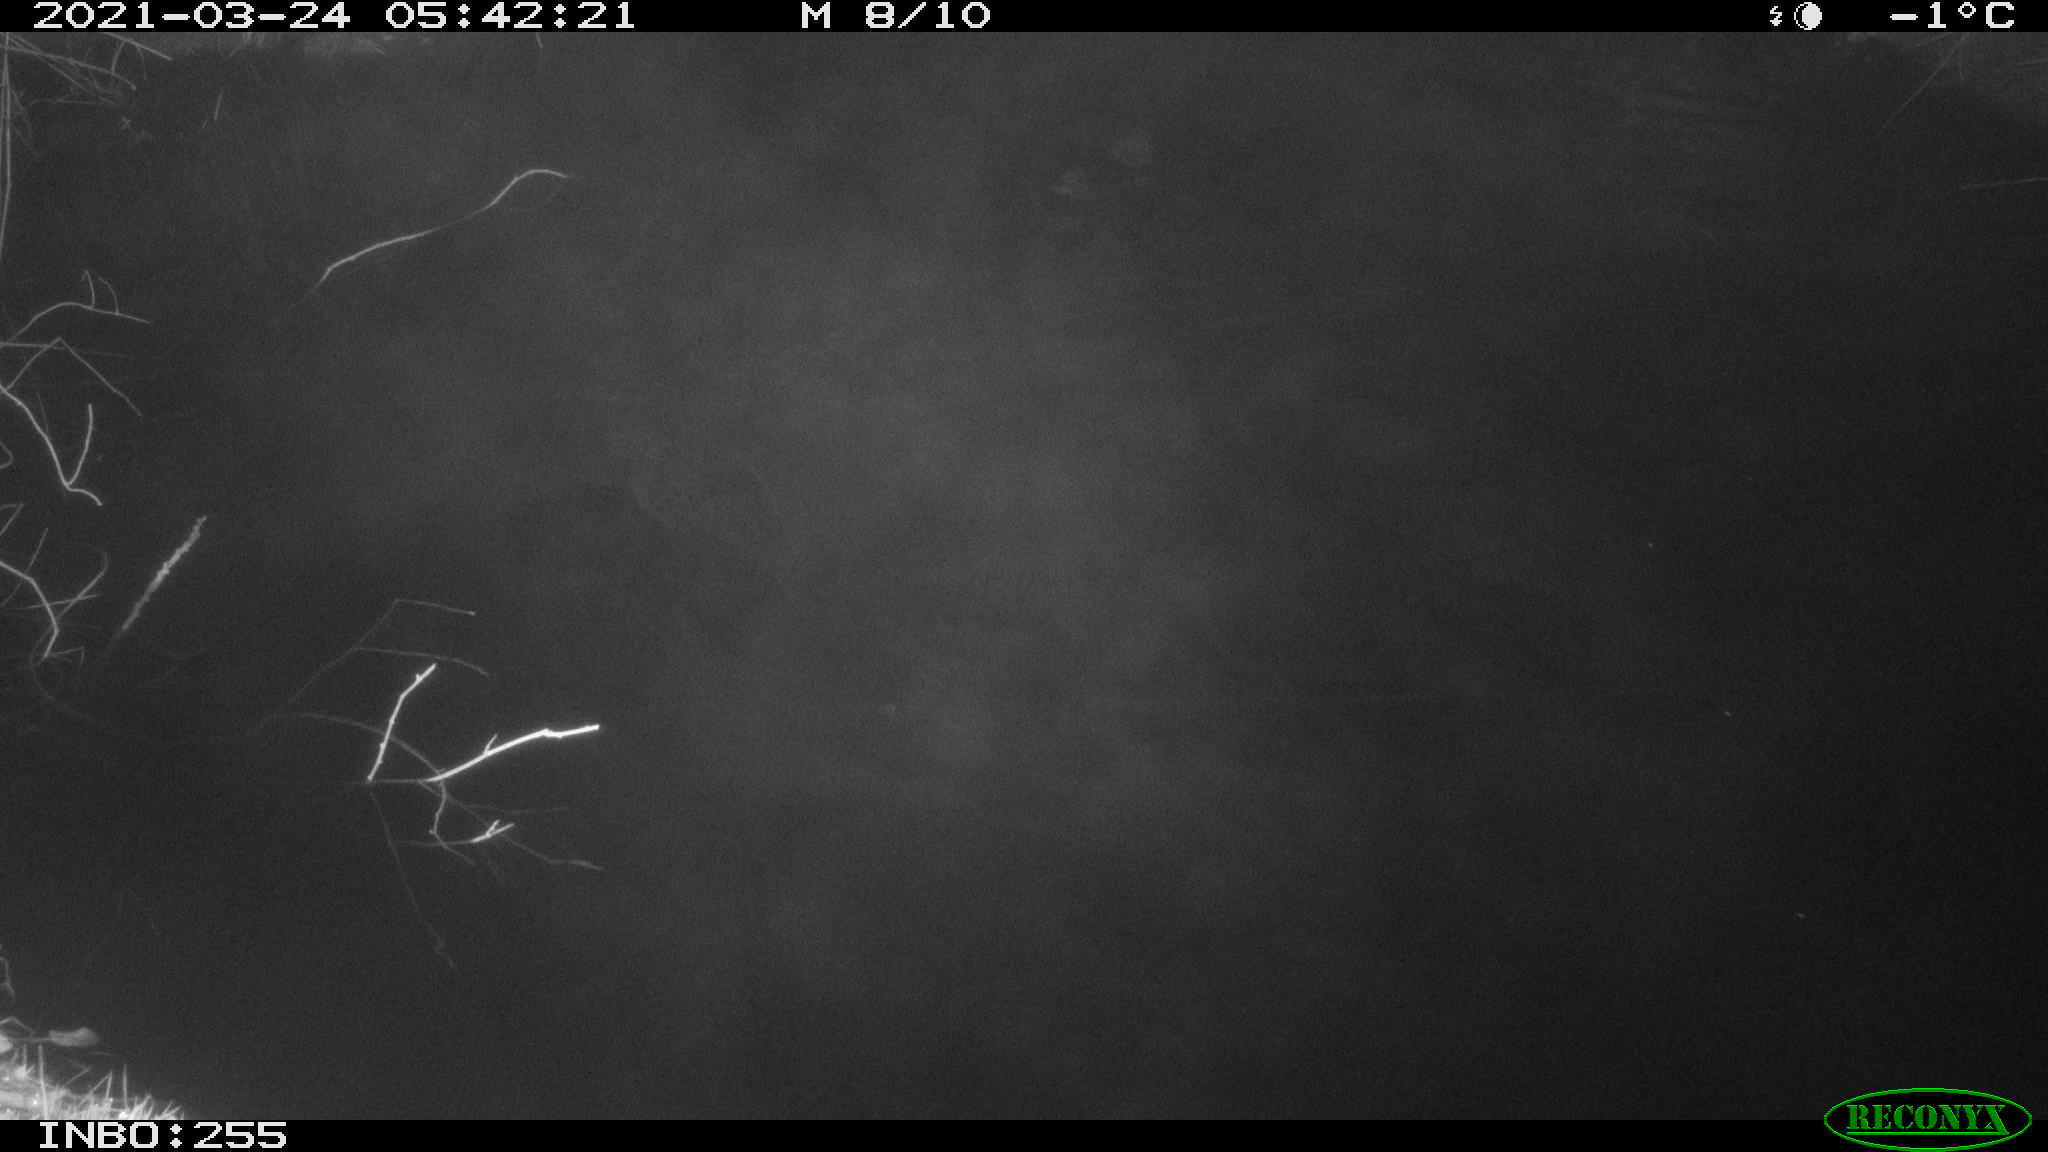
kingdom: Animalia
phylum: Chordata
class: Aves
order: Anseriformes
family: Anatidae
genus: Anas
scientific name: Anas platyrhynchos
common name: Mallard
